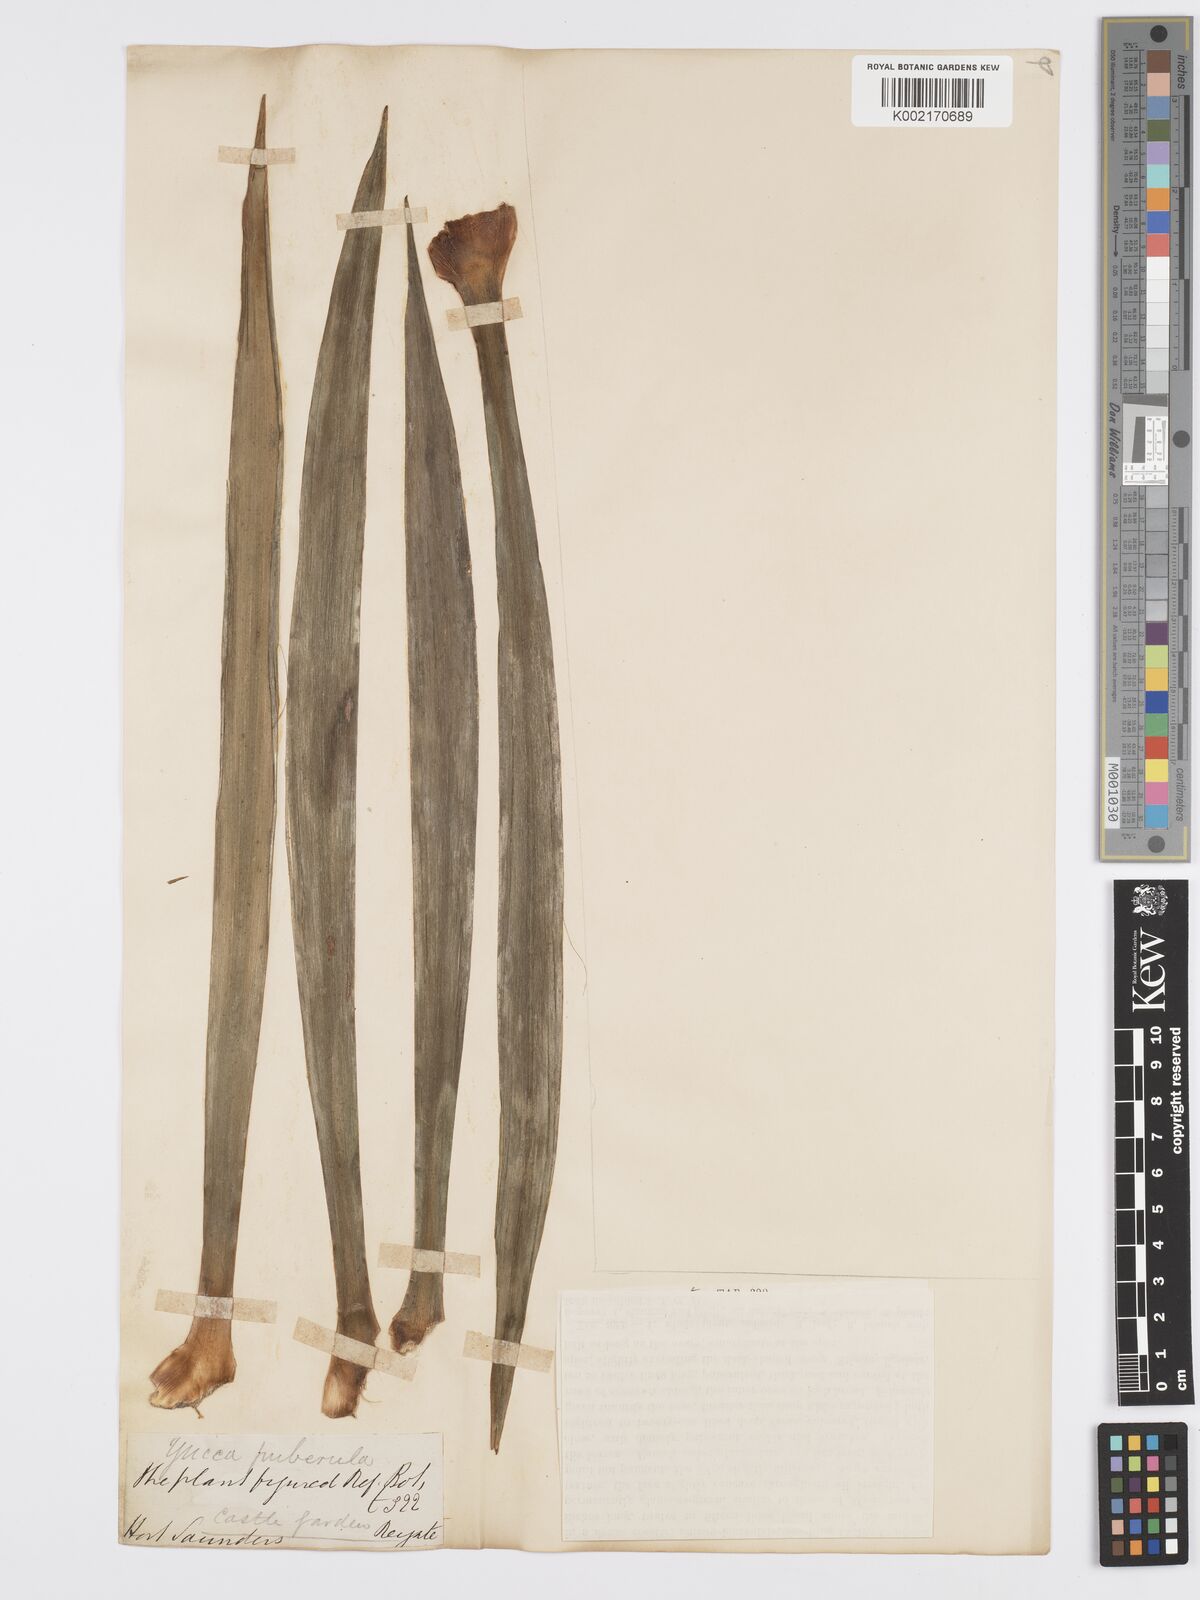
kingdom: Plantae
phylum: Tracheophyta
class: Liliopsida
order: Asparagales
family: Asparagaceae
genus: Yucca
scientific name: Yucca flaccida
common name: Adam's-needle
